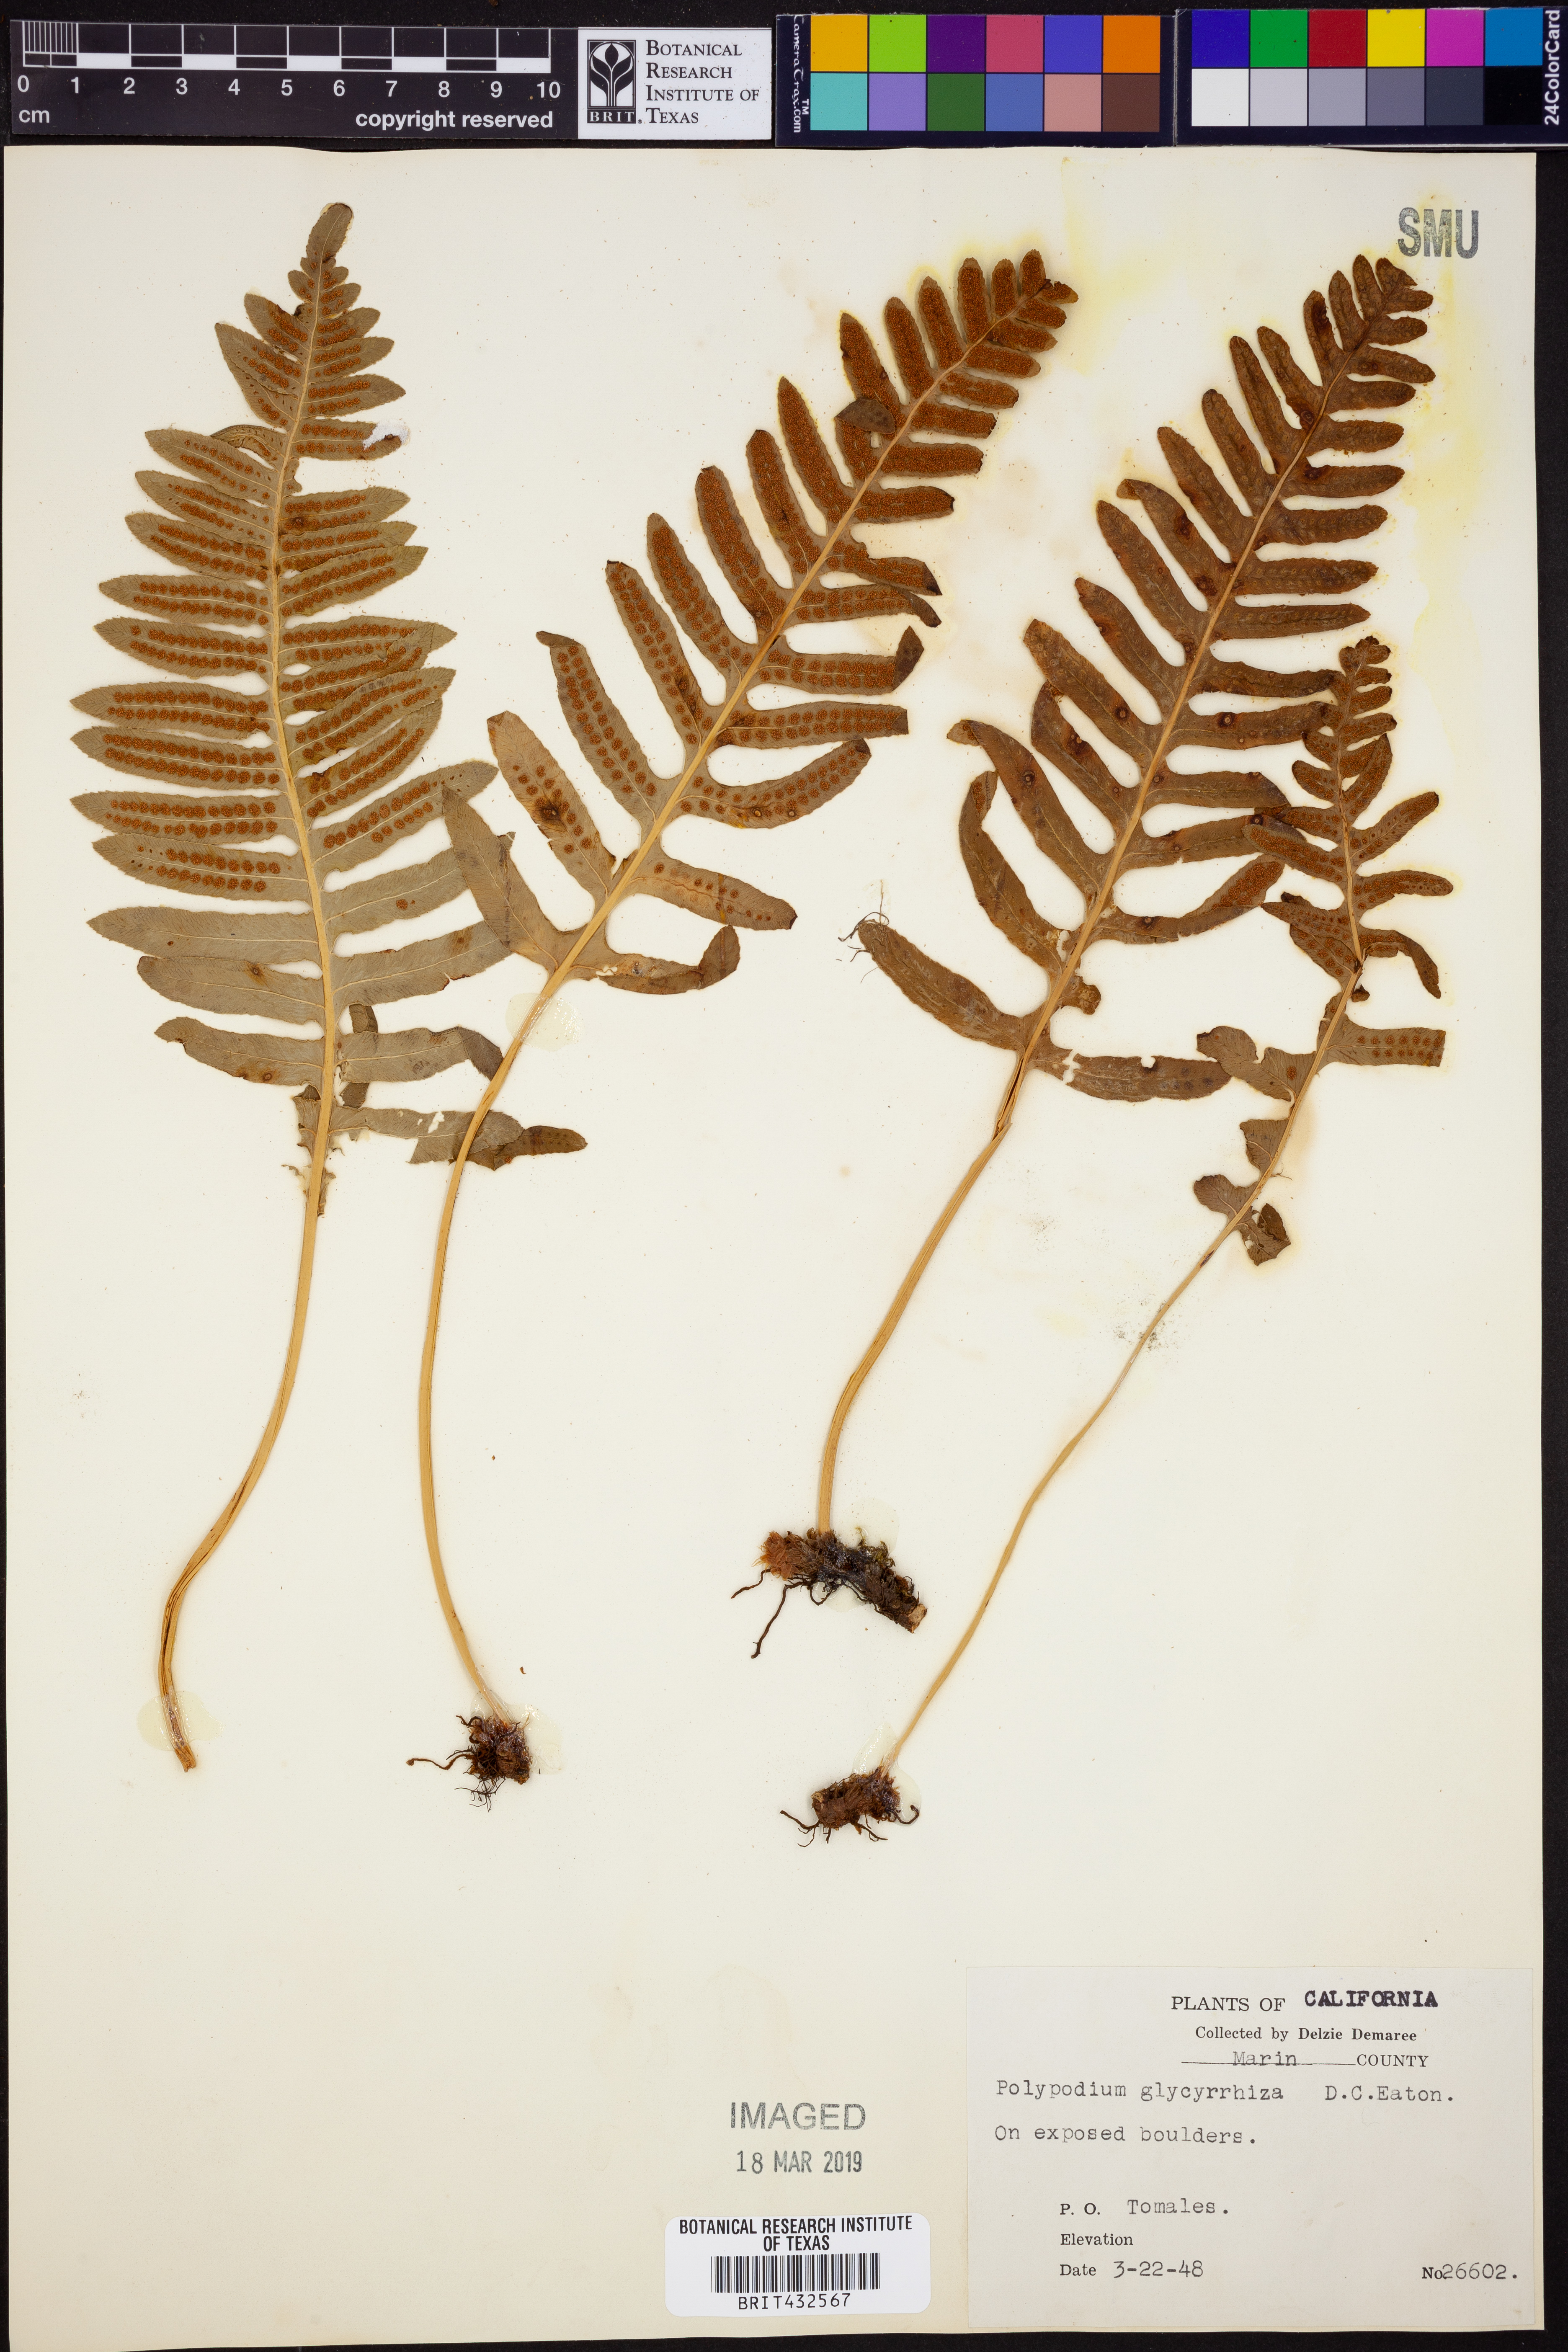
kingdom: Plantae
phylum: Tracheophyta
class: Polypodiopsida
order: Polypodiales
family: Polypodiaceae
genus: Polypodium
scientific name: Polypodium glycyrrhiza
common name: Licorice fern
